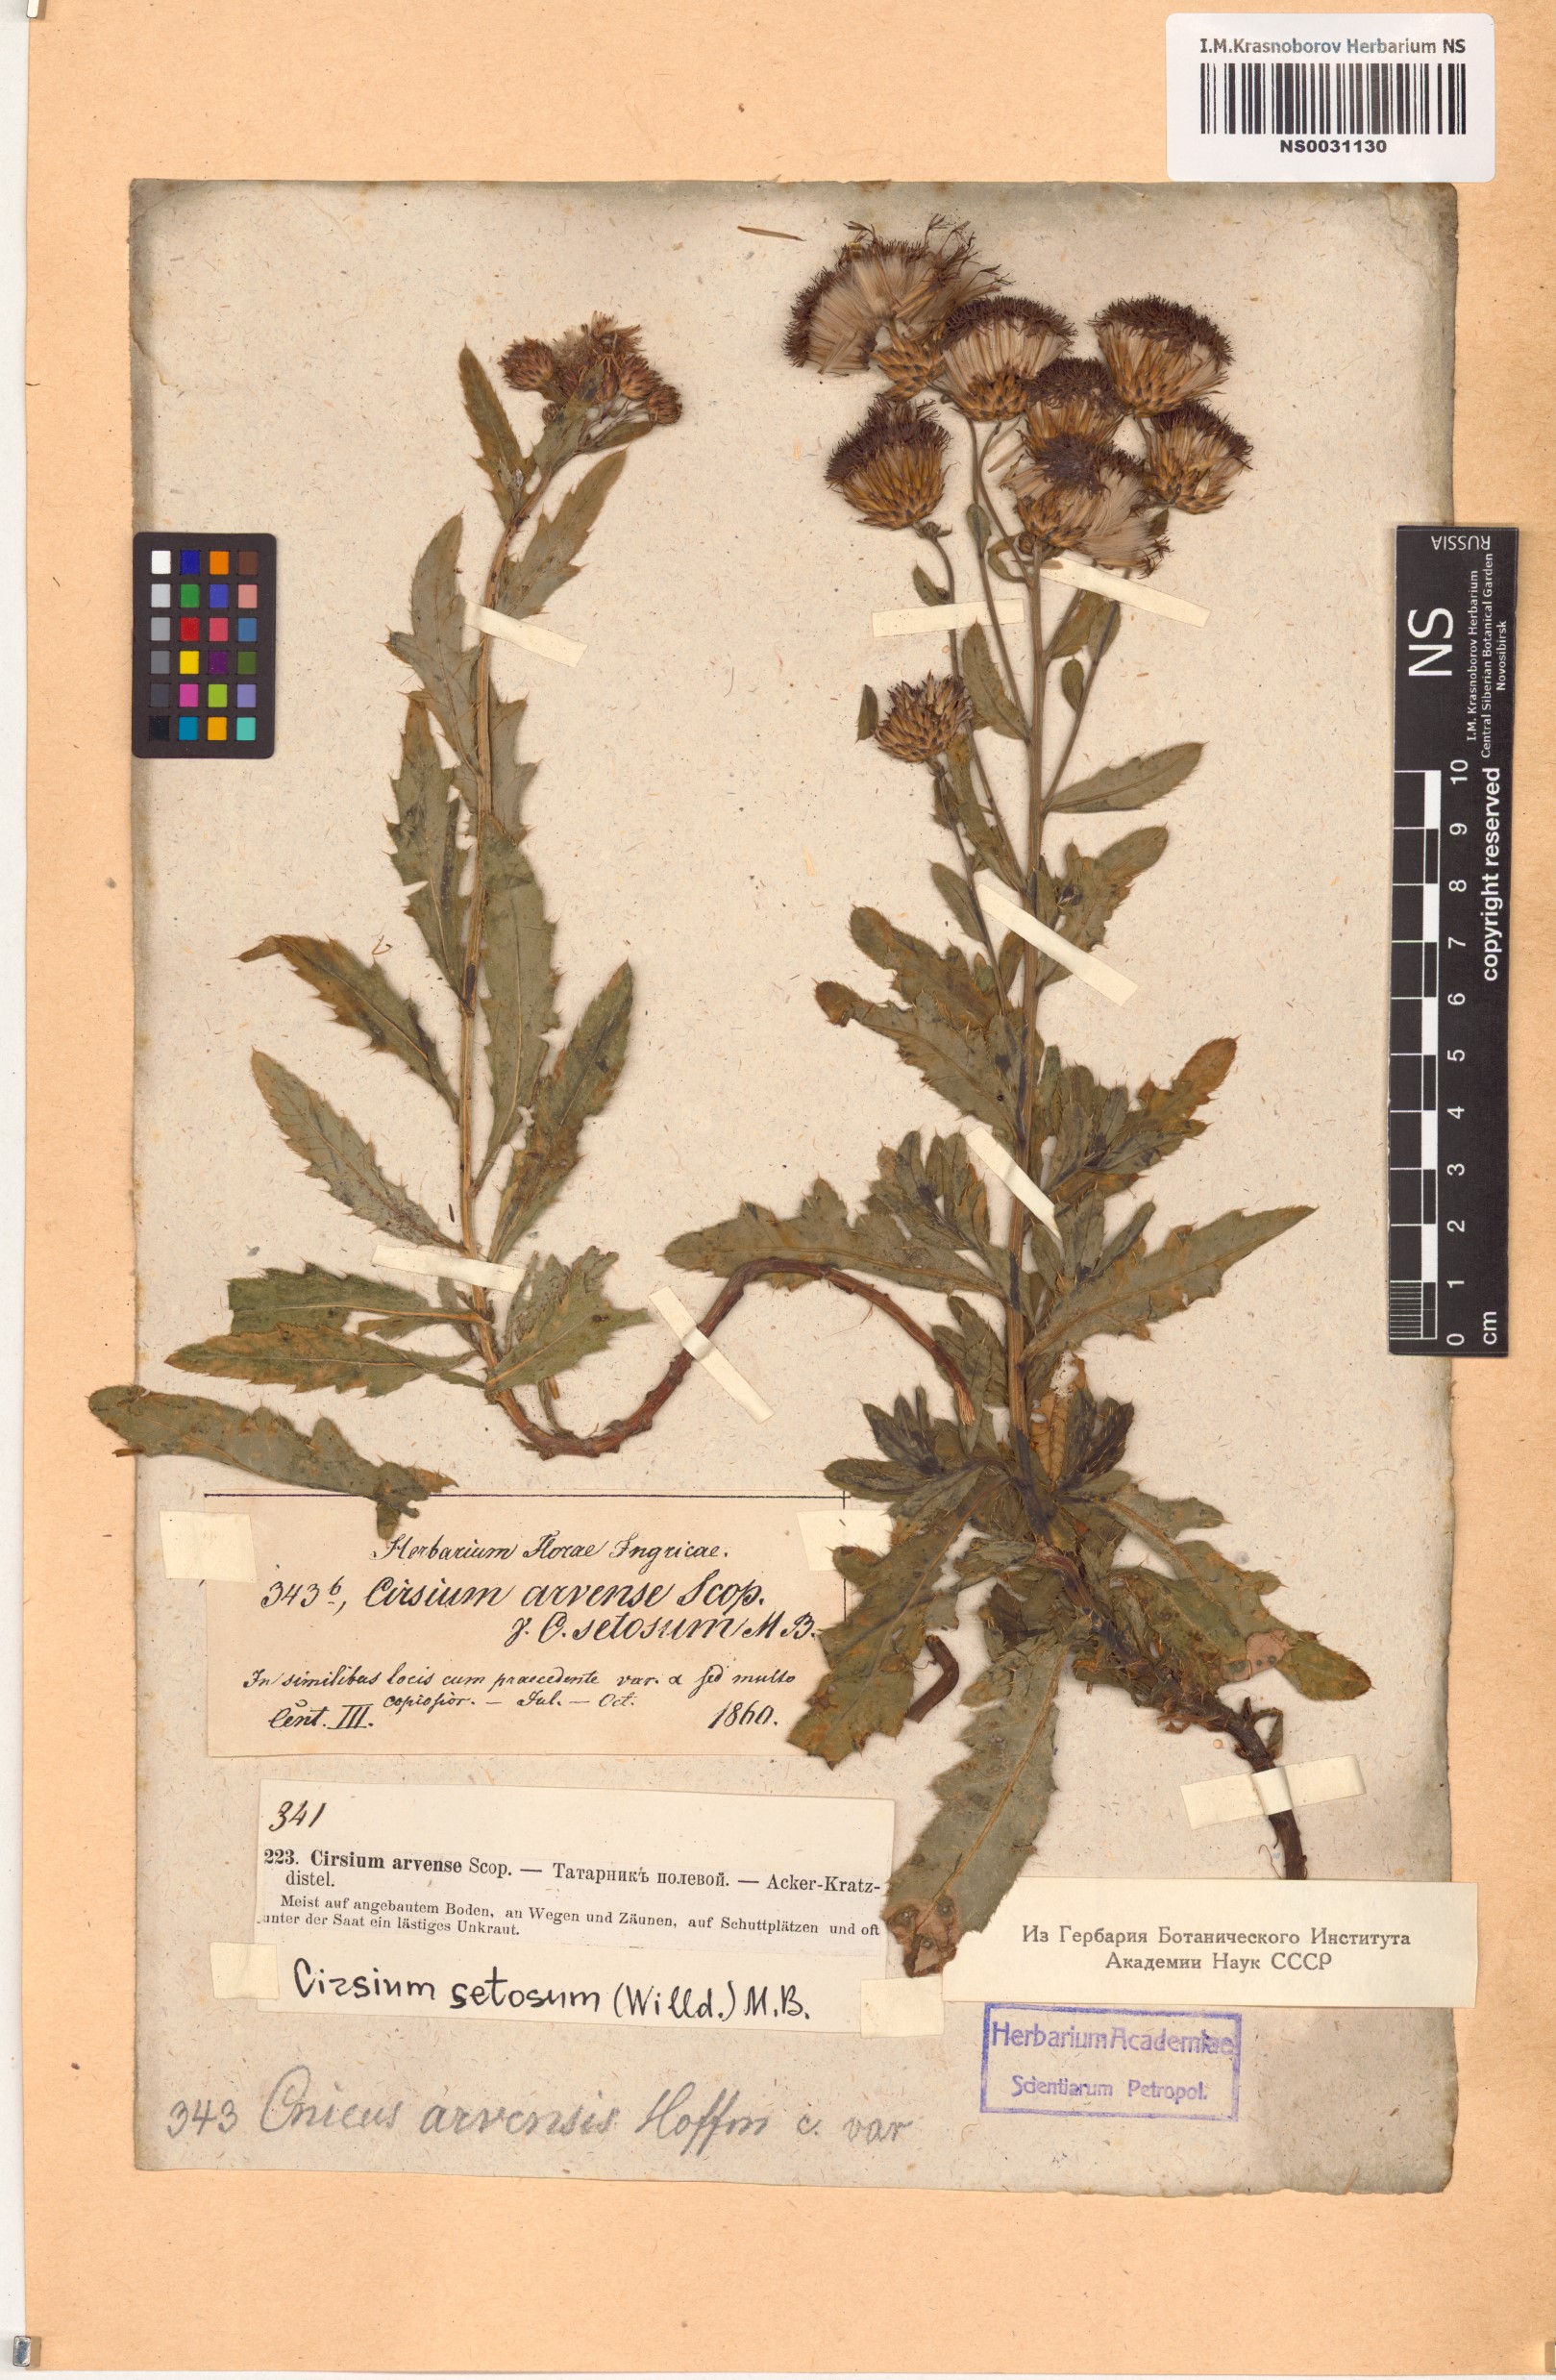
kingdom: Plantae
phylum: Tracheophyta
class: Magnoliopsida
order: Asterales
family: Asteraceae
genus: Cirsium
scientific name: Cirsium arvense
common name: Creeping thistle
